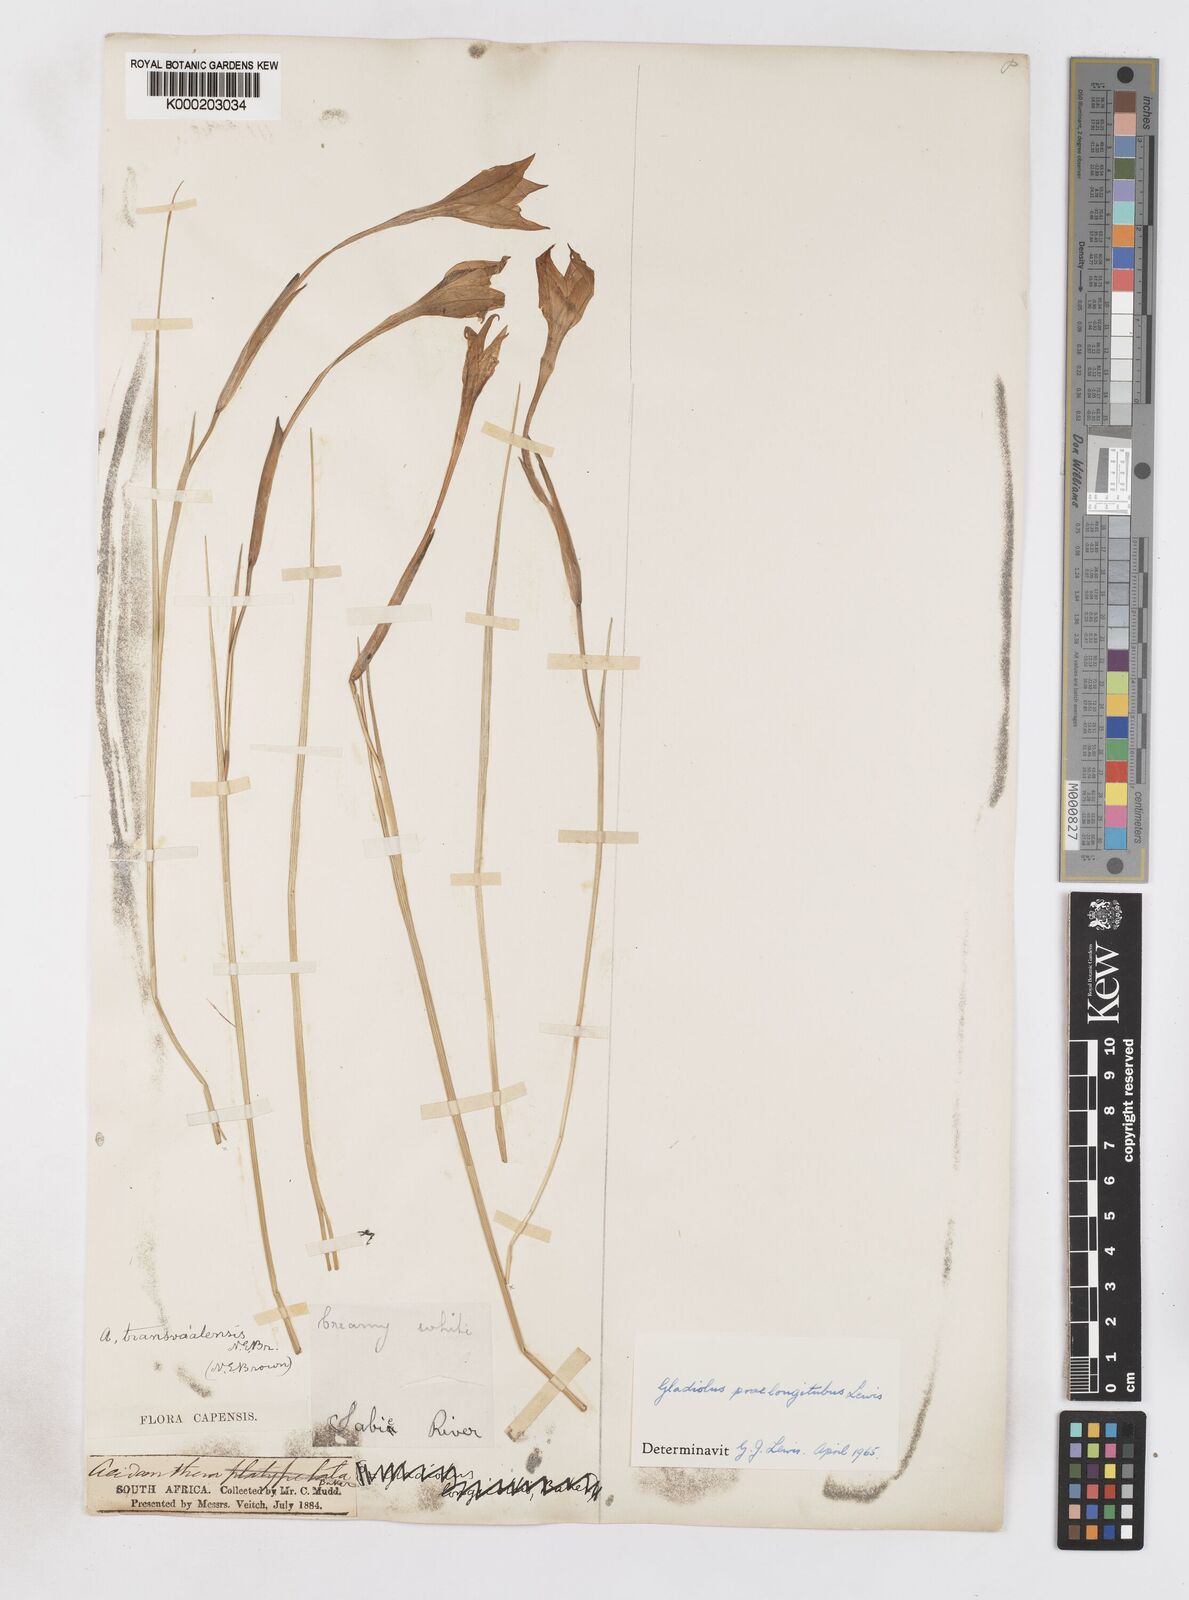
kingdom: Plantae
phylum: Tracheophyta
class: Liliopsida
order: Asparagales
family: Iridaceae
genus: Gladiolus
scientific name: Gladiolus longicollis
